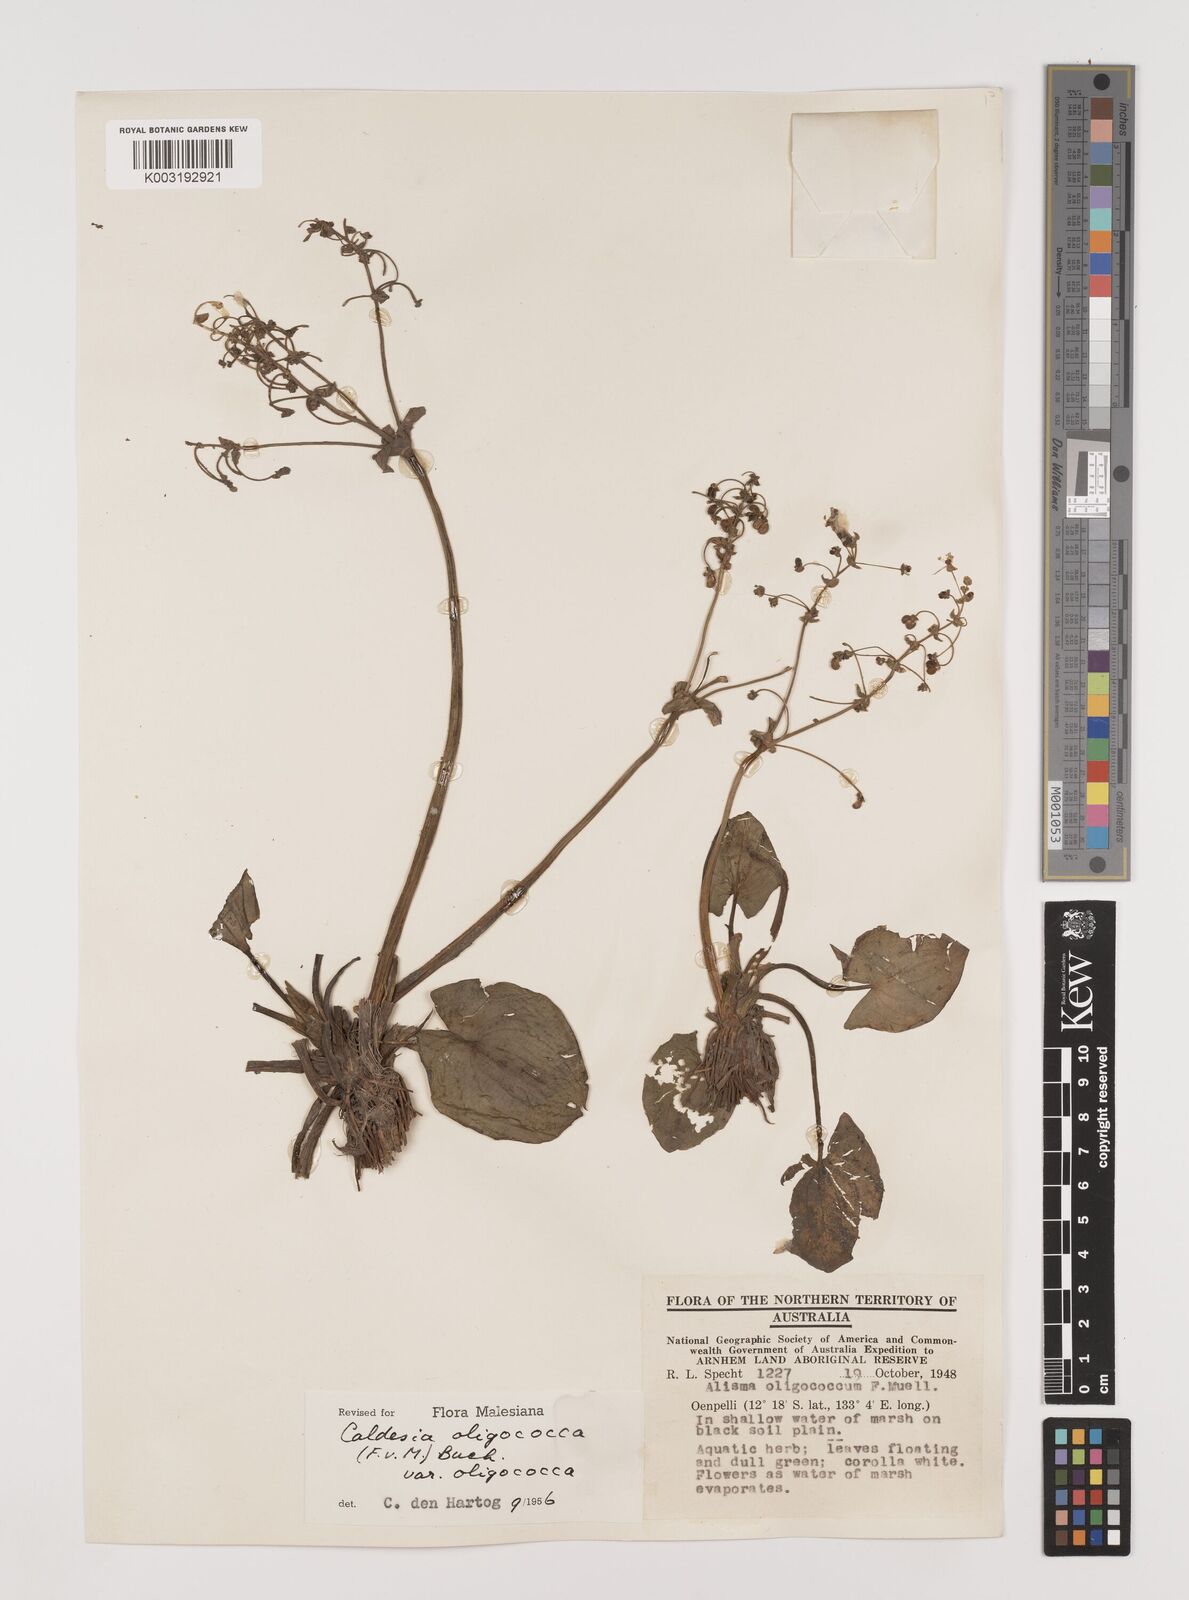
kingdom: Plantae
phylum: Tracheophyta
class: Liliopsida
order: Alismatales
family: Alismataceae
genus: Albidella
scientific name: Albidella oligococca
